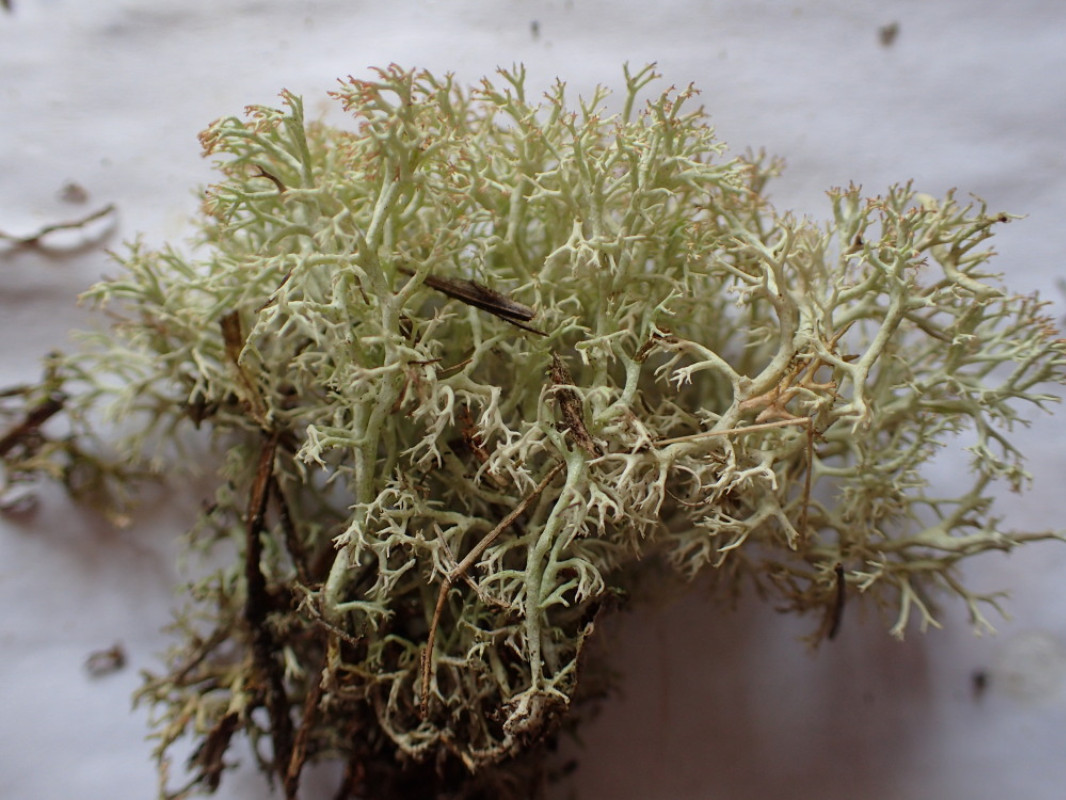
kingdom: Fungi
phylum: Ascomycota
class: Lecanoromycetes
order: Lecanorales
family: Cladoniaceae
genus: Cladonia
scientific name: Cladonia ciliata
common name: spinkel rensdyrlav
